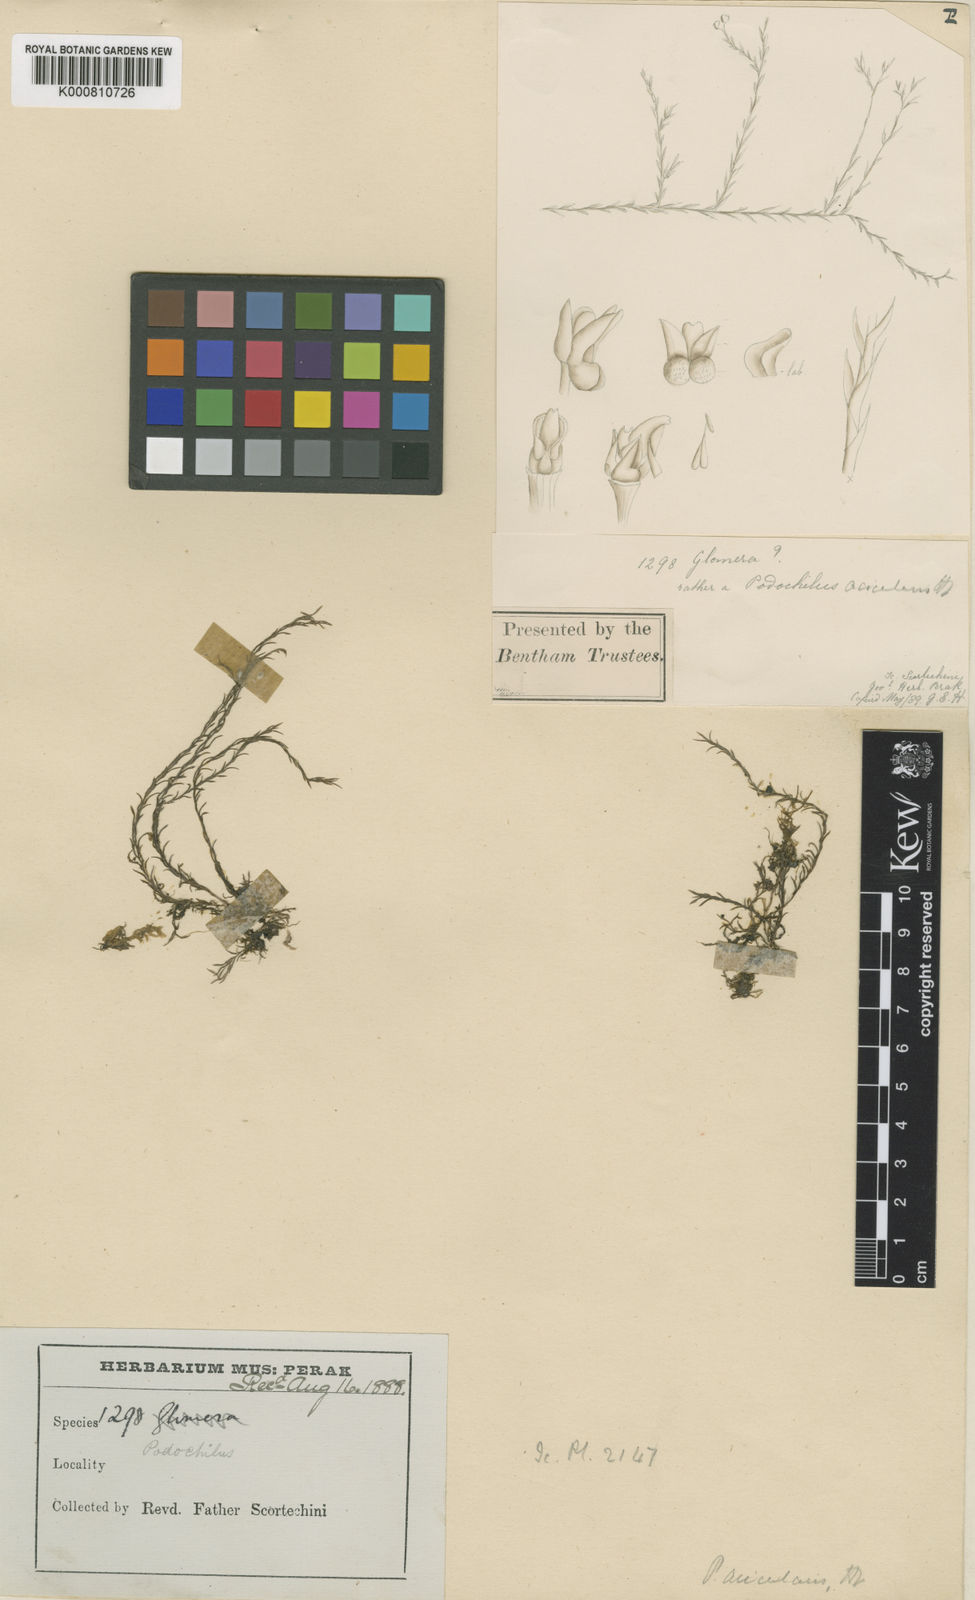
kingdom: Plantae
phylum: Tracheophyta
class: Liliopsida
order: Asparagales
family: Orchidaceae
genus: Podochilus
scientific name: Podochilus tenuis
